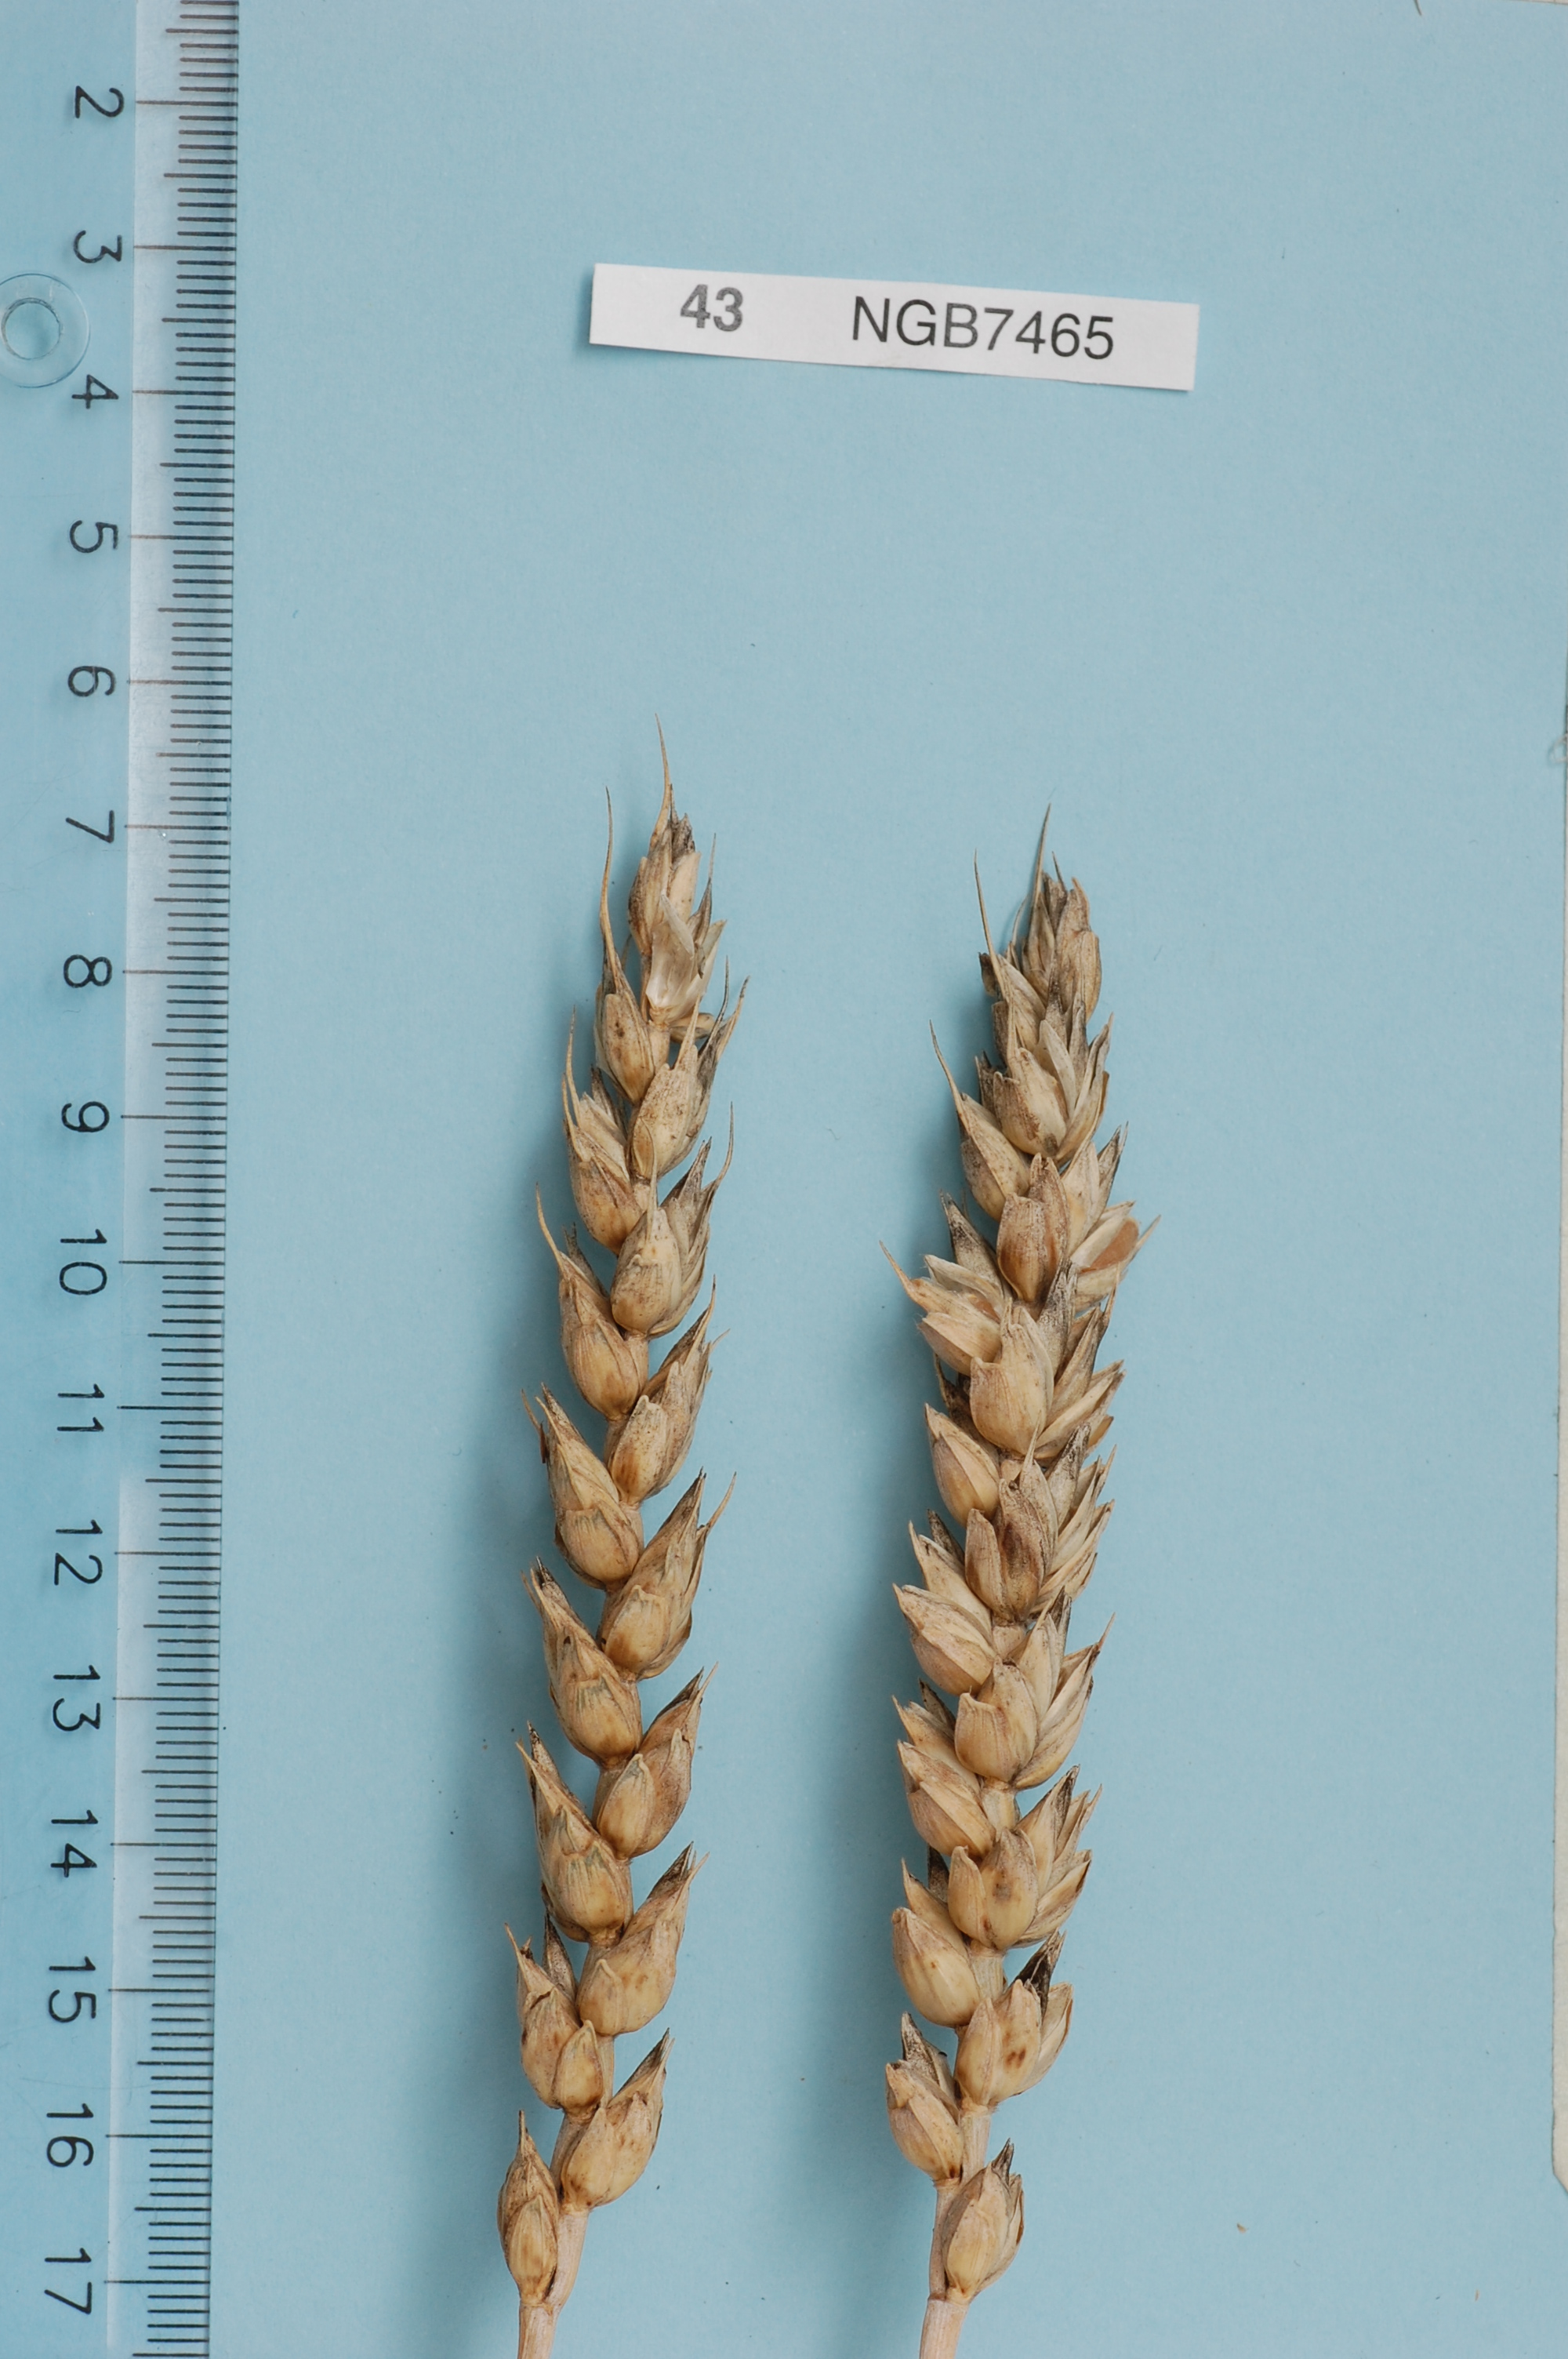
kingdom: Plantae
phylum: Tracheophyta
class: Liliopsida
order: Poales
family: Poaceae
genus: Triticum
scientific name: Triticum aestivum
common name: Common wheat
